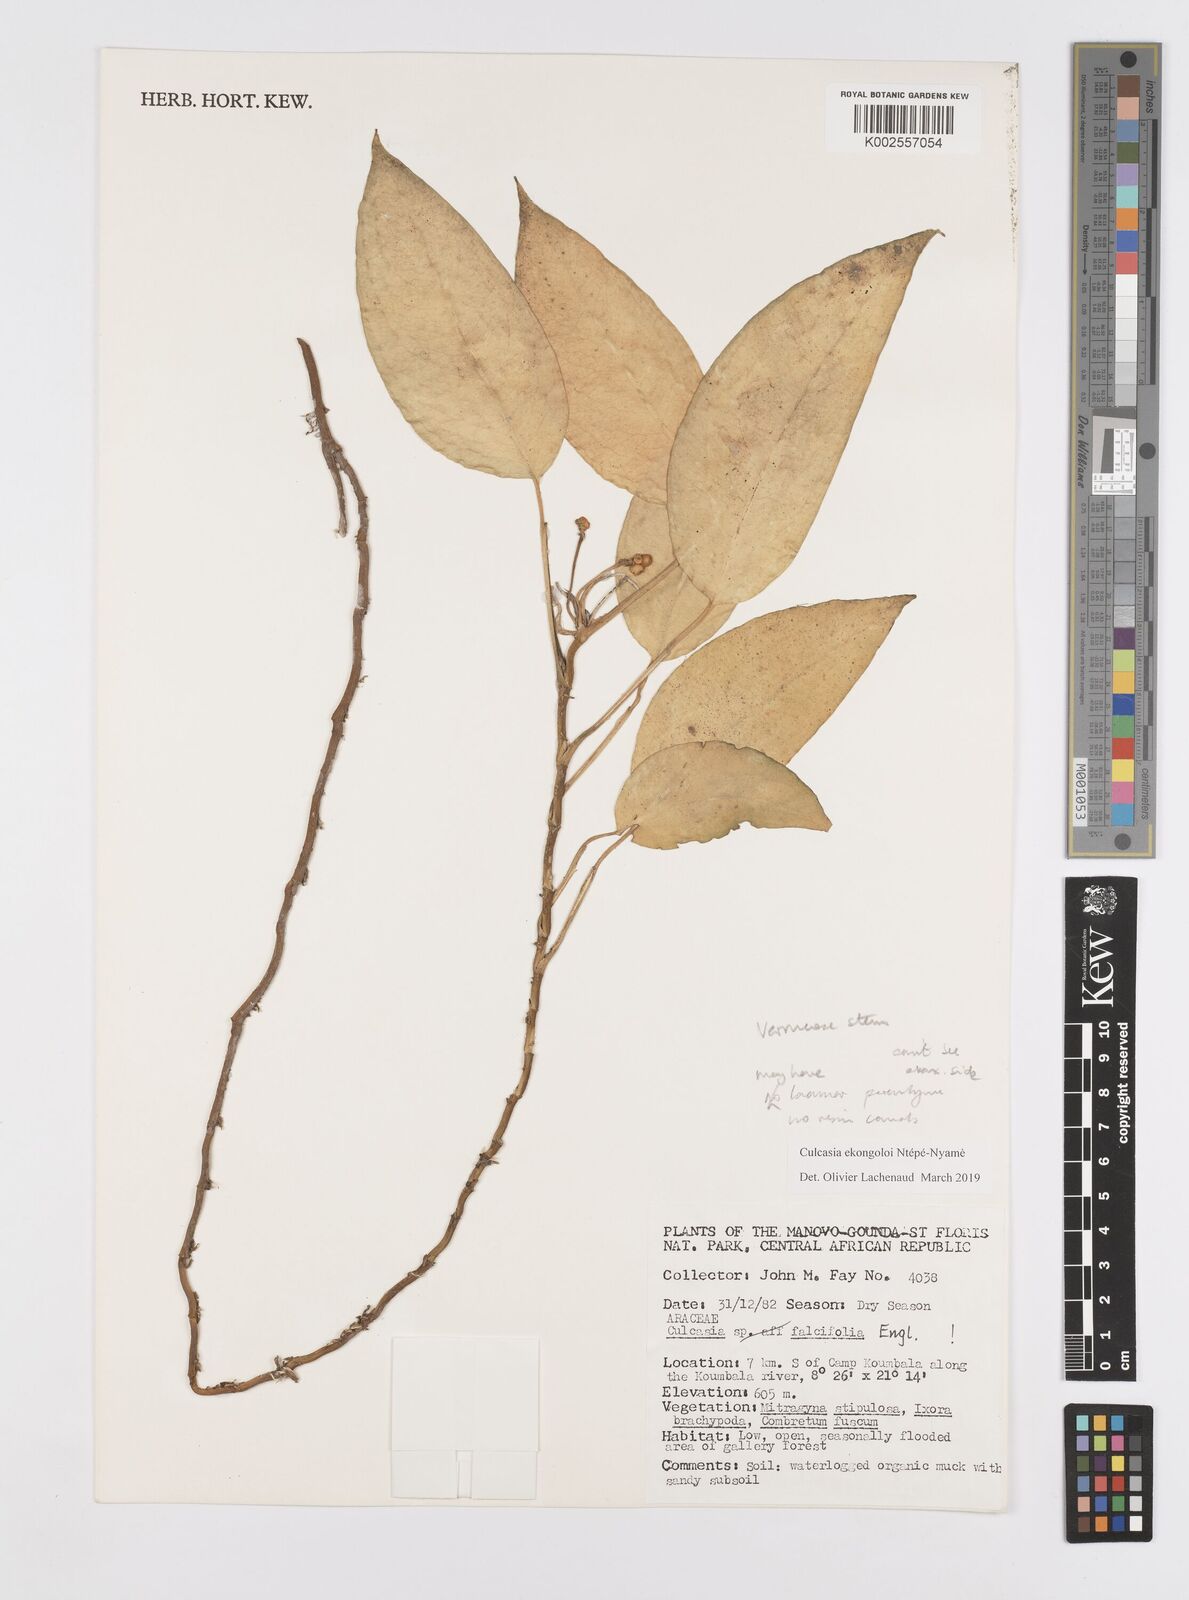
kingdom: Plantae
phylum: Tracheophyta
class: Liliopsida
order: Alismatales
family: Araceae
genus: Culcasia
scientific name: Culcasia ekongoloi
